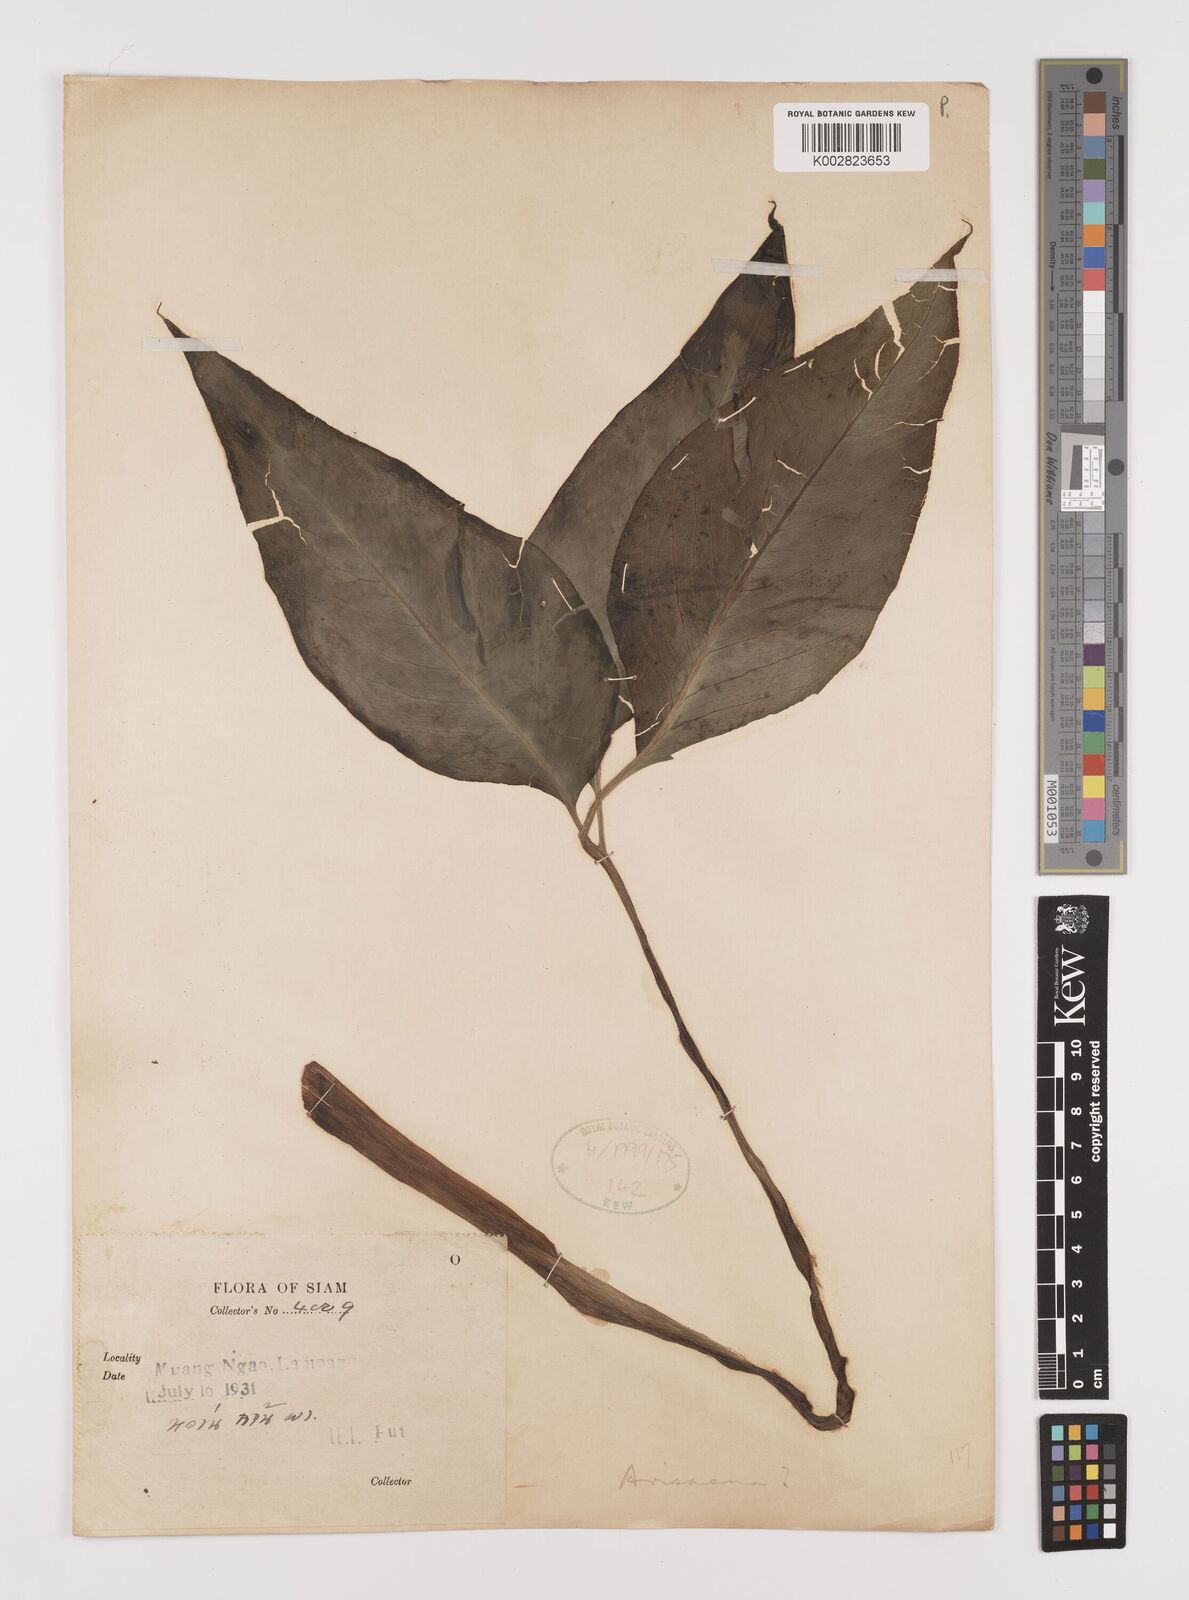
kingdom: Plantae
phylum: Tracheophyta
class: Liliopsida
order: Alismatales
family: Araceae
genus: Arisaema
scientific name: Arisaema
